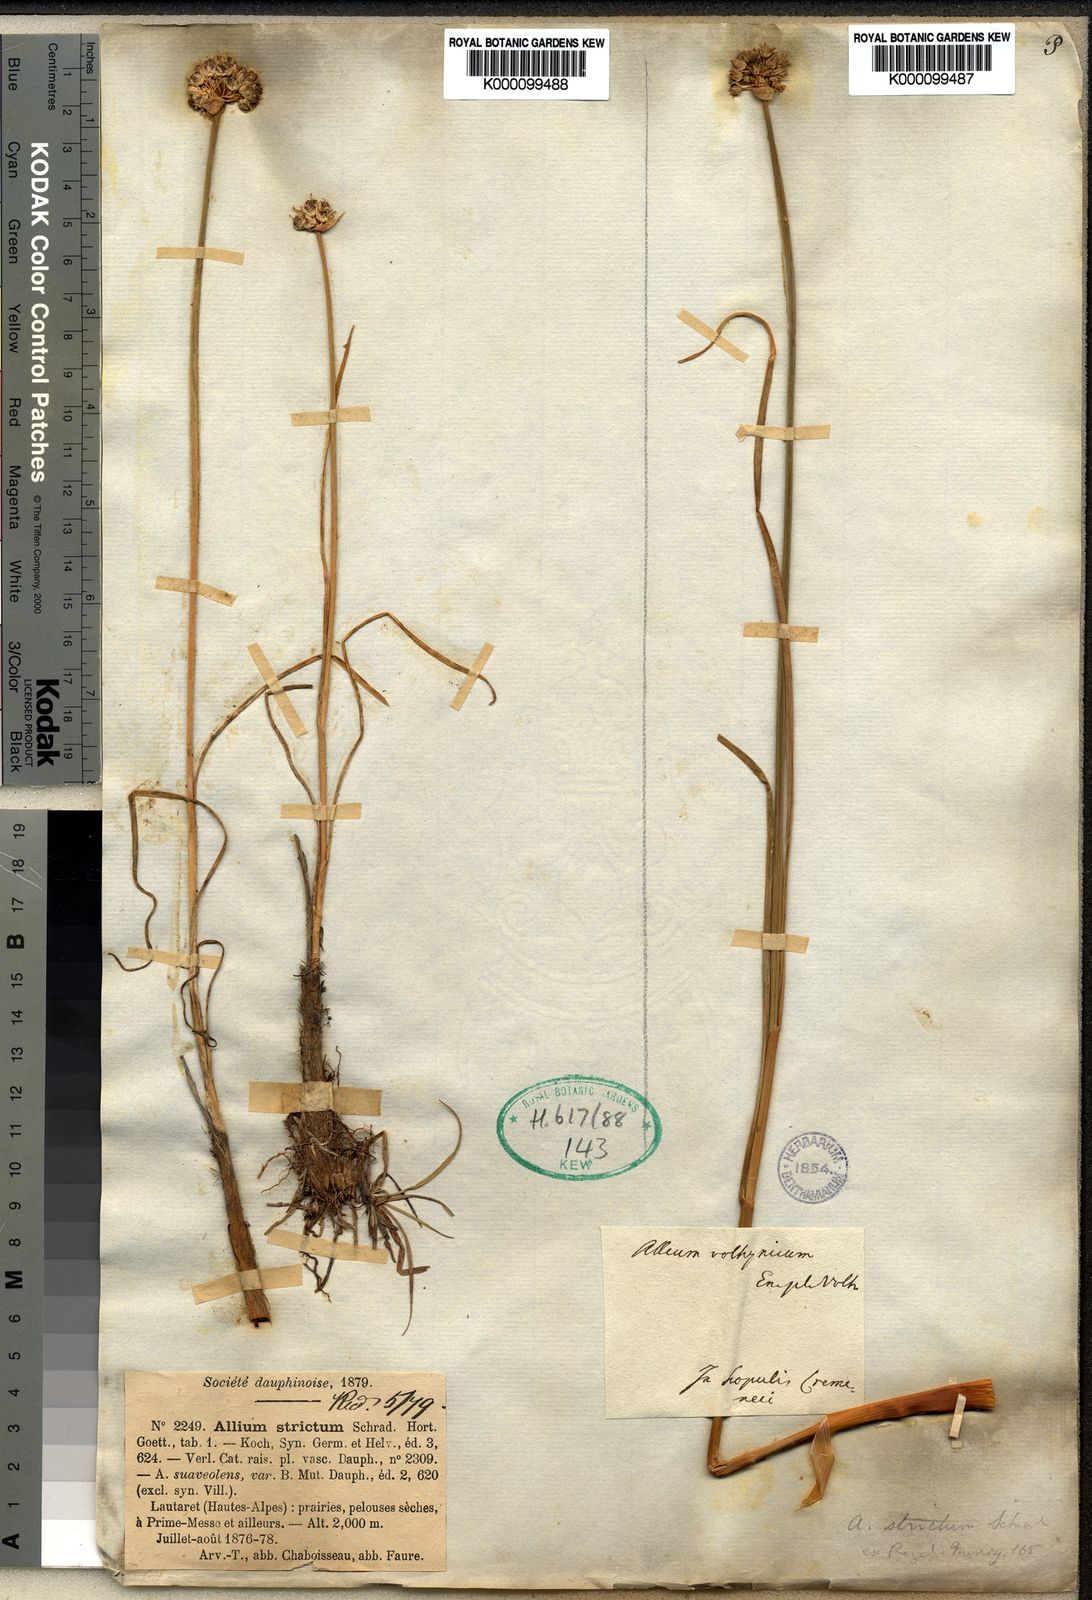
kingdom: Plantae
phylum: Tracheophyta
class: Liliopsida
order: Asparagales
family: Amaryllidaceae
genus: Allium
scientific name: Allium strictum
